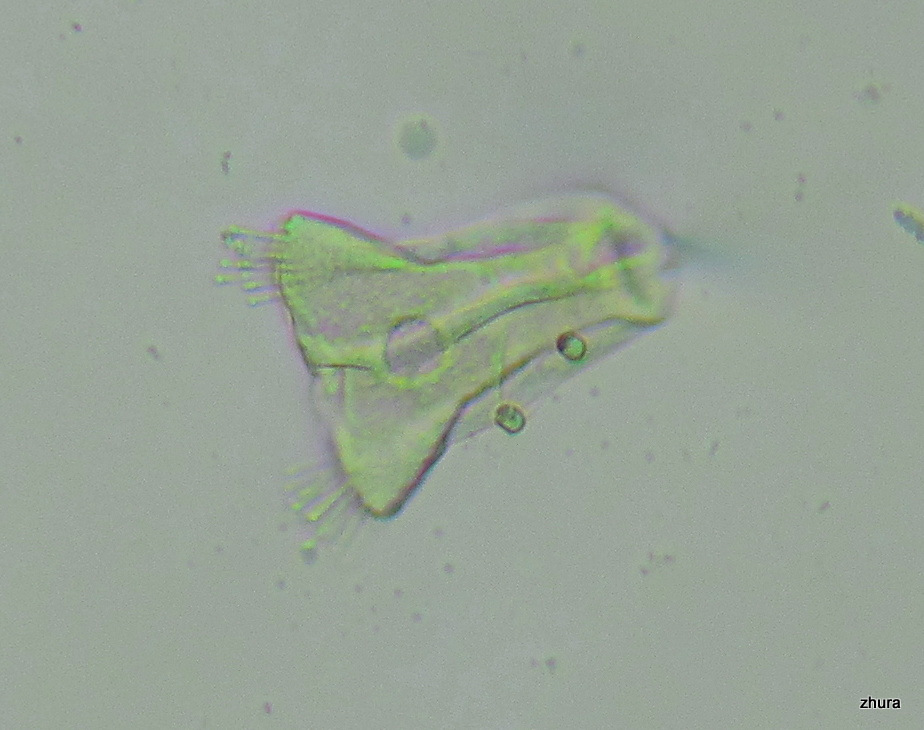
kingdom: Chromista
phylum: Ciliophora
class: Kinetofragminophora
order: Suctorida
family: Acinetidae
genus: Acineta
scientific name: Acineta tuberosa
